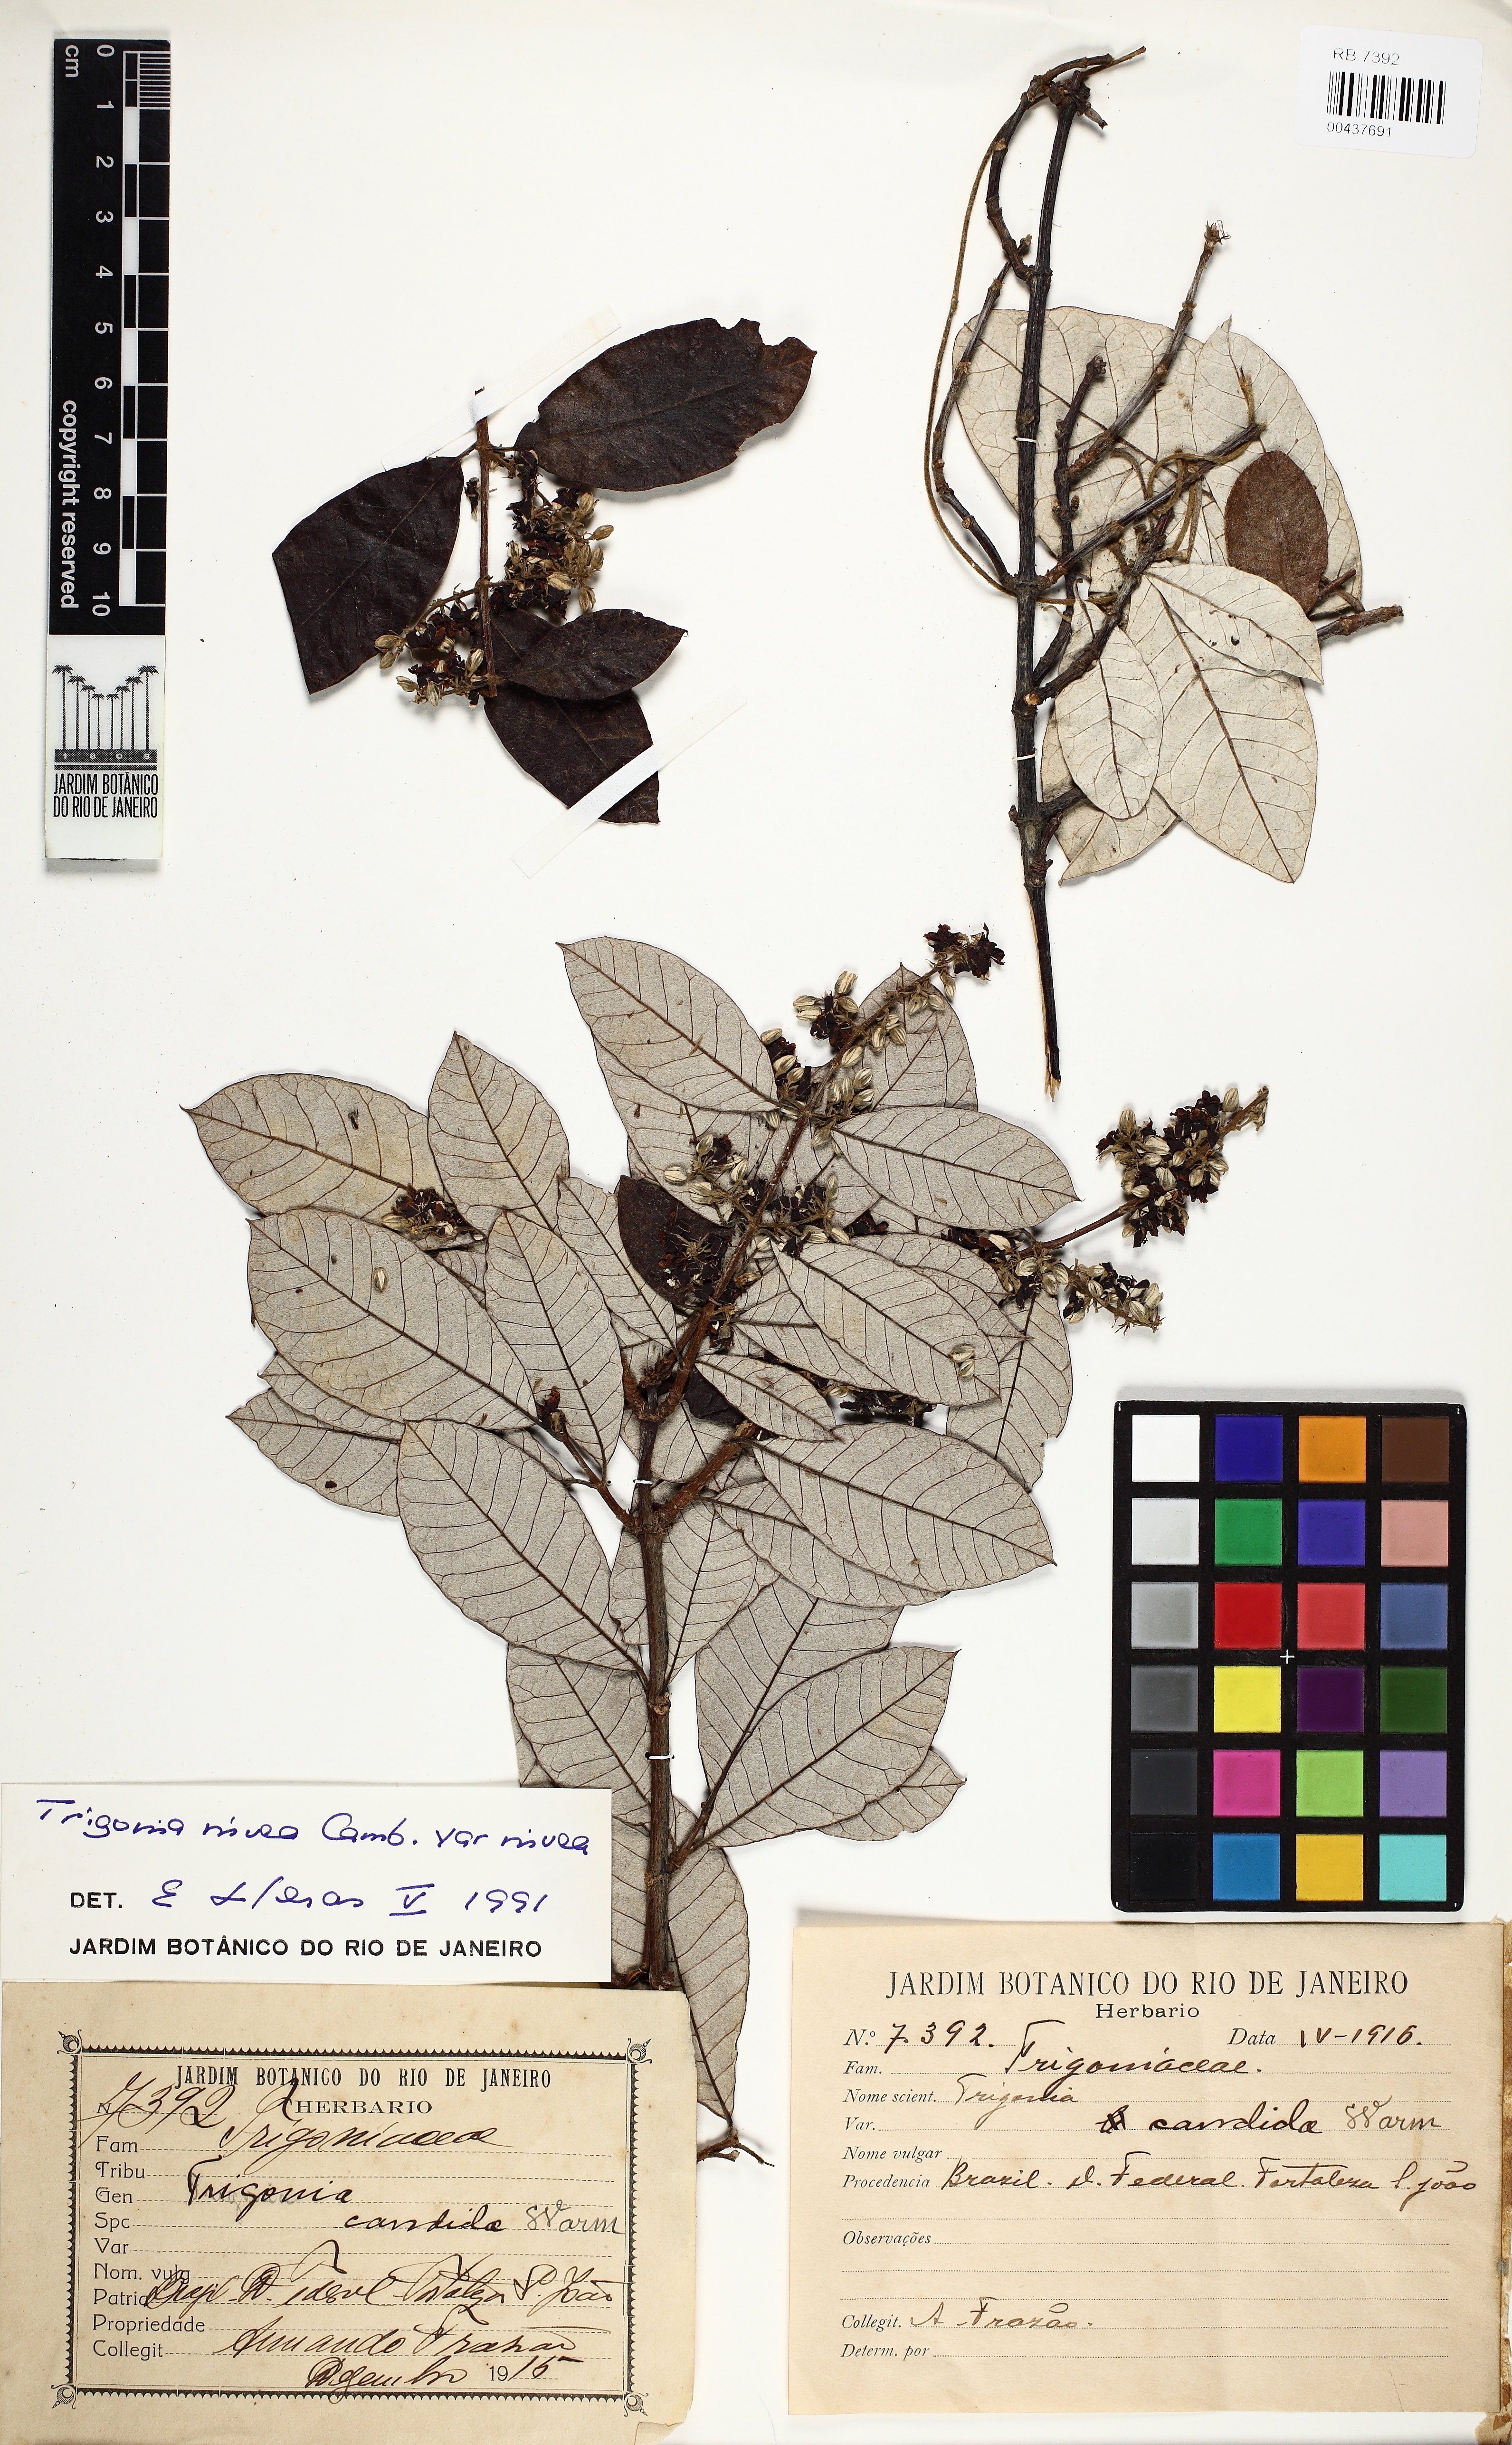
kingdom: Plantae
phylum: Tracheophyta
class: Magnoliopsida
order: Malpighiales
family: Trigoniaceae
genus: Trigonia
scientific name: Trigonia nivea
